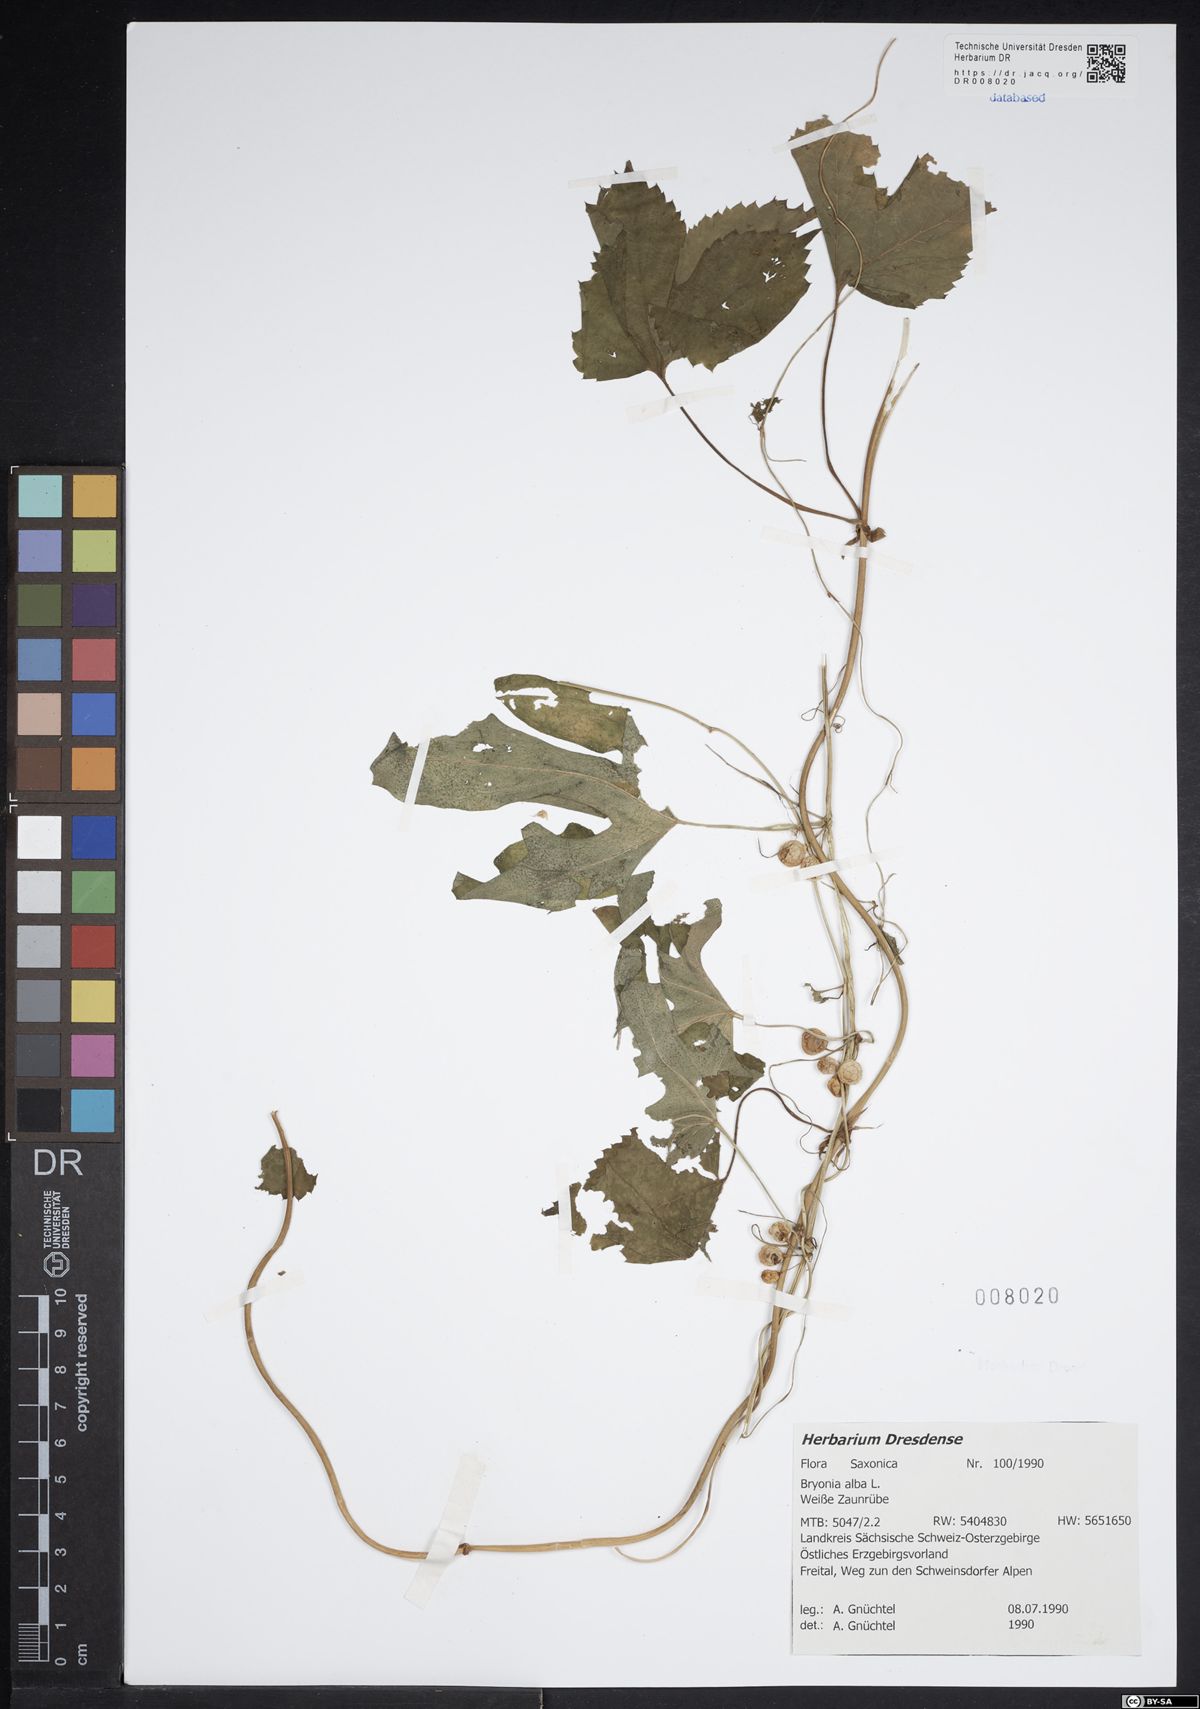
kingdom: Plantae
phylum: Tracheophyta
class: Magnoliopsida
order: Cucurbitales
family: Cucurbitaceae
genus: Bryonia
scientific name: Bryonia alba
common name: White bryony
